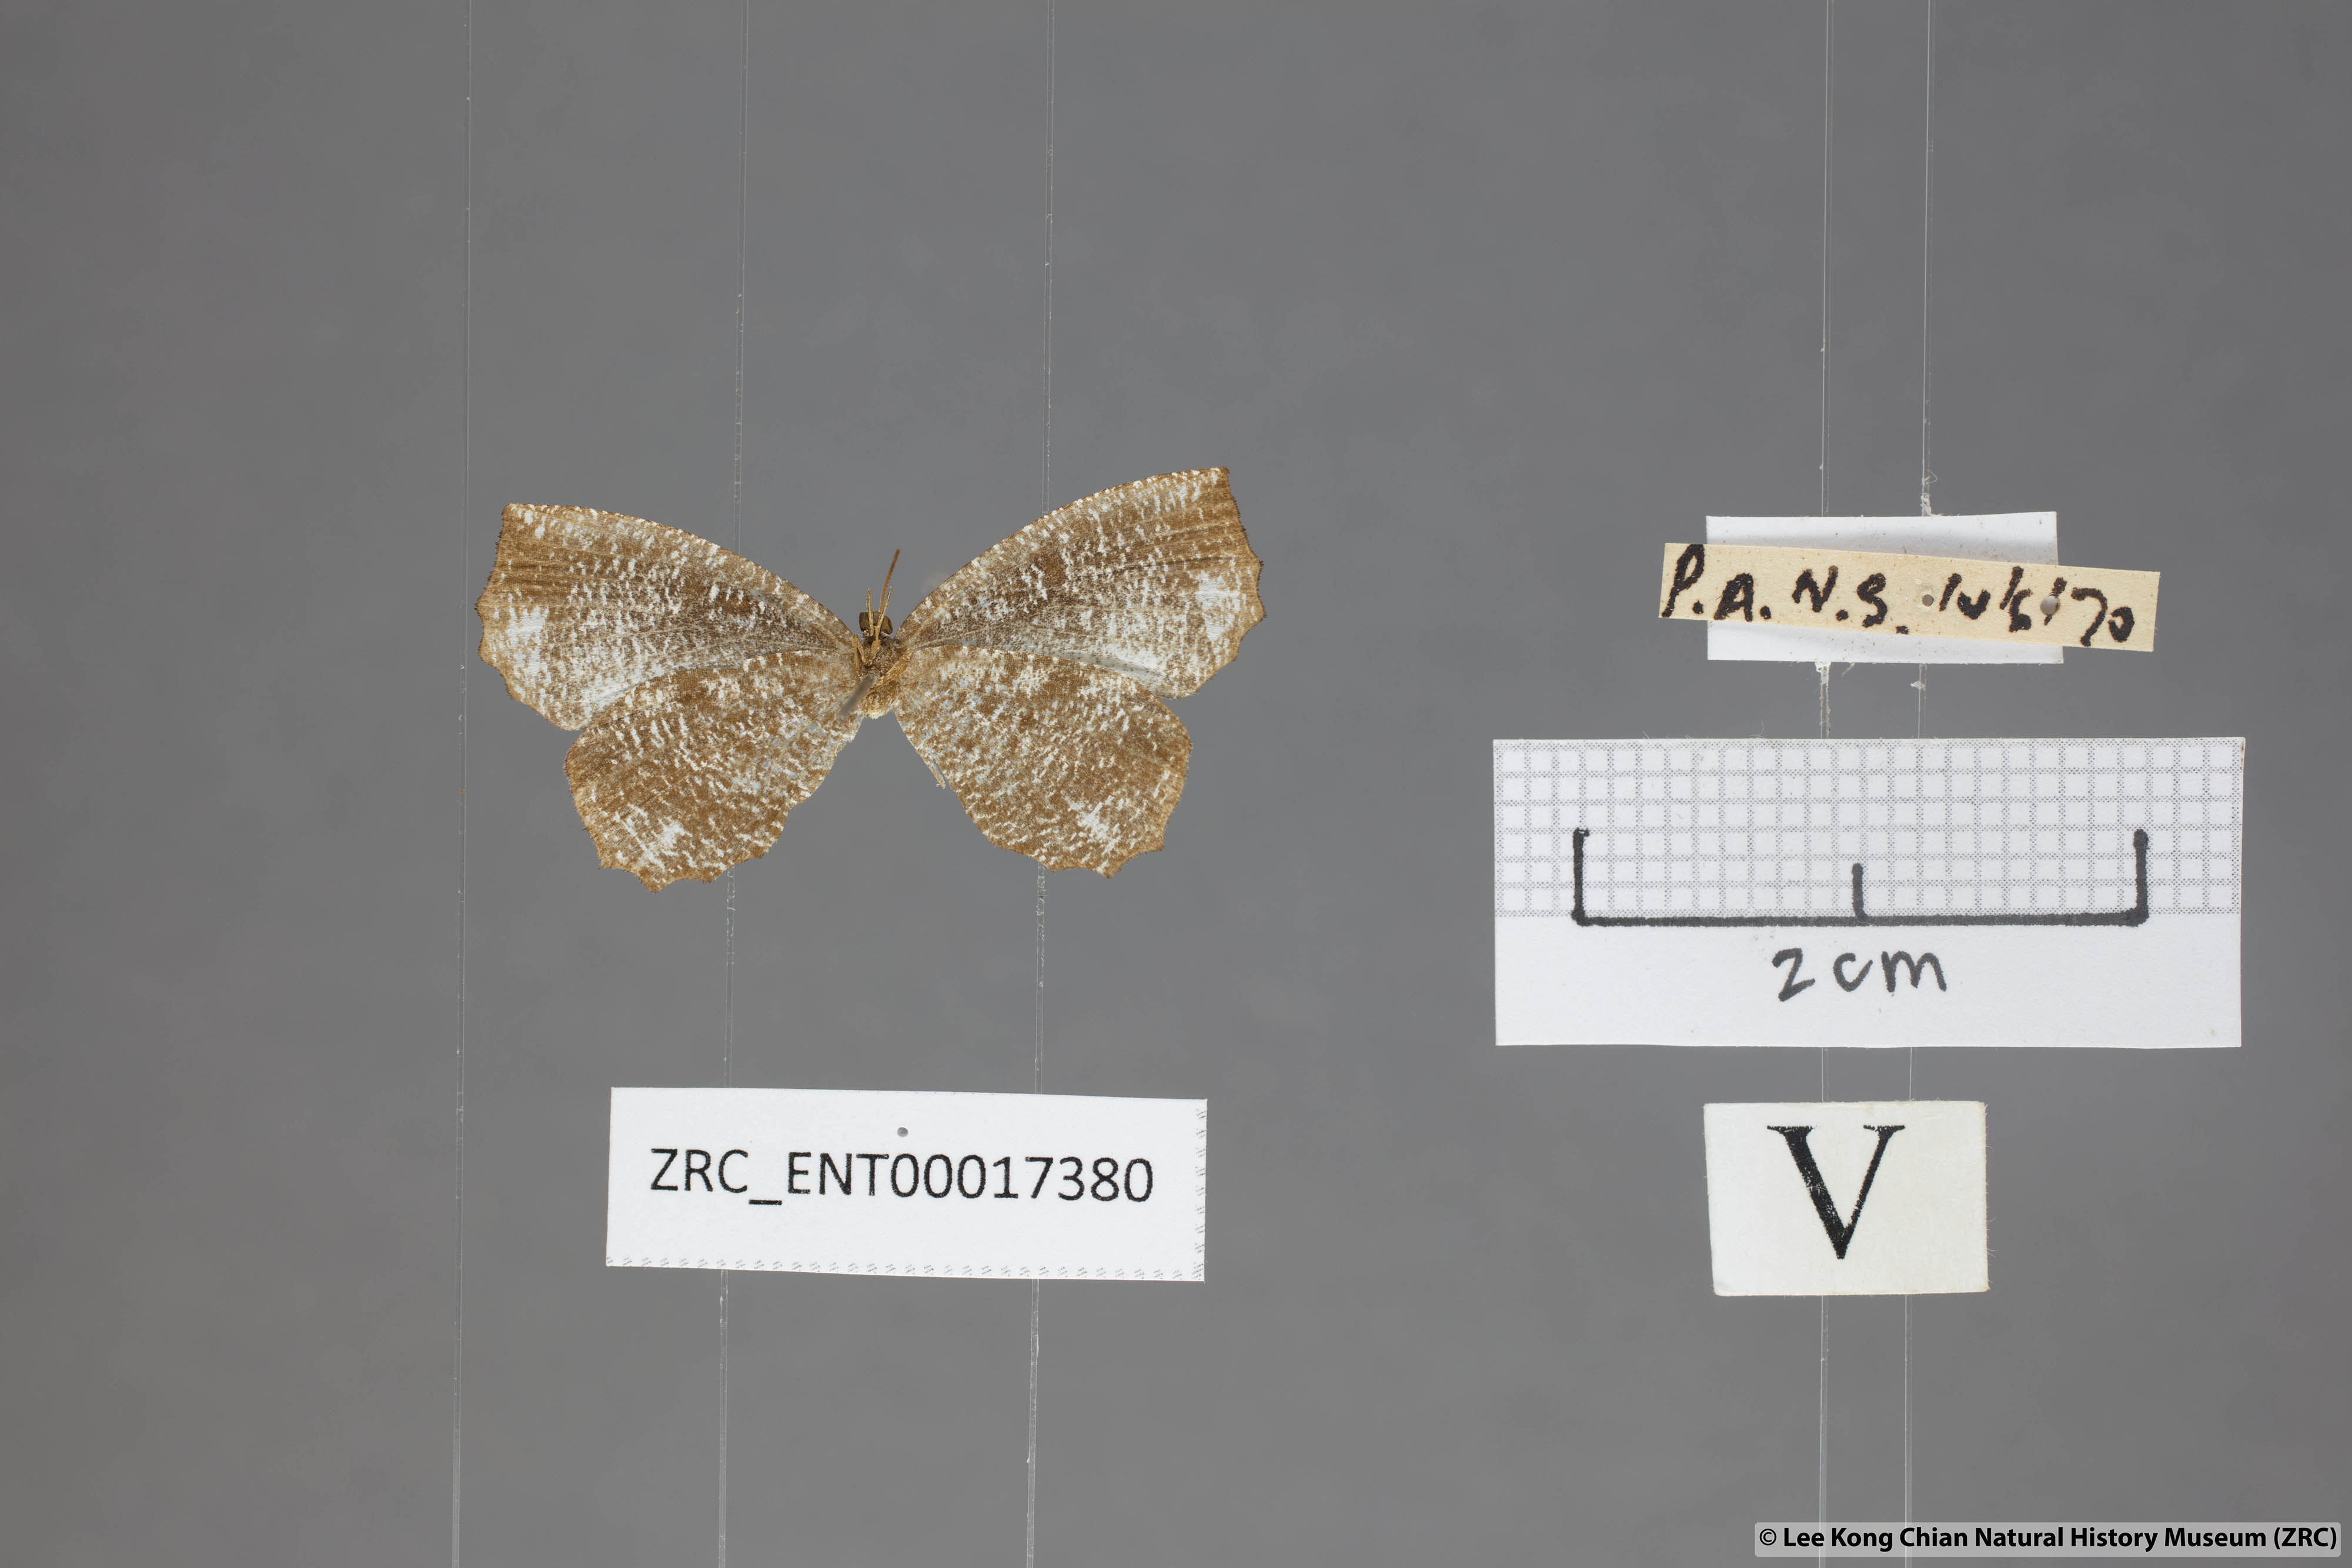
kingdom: Animalia
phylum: Arthropoda
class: Insecta
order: Lepidoptera
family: Lycaenidae
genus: Logania
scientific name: Logania malayica
